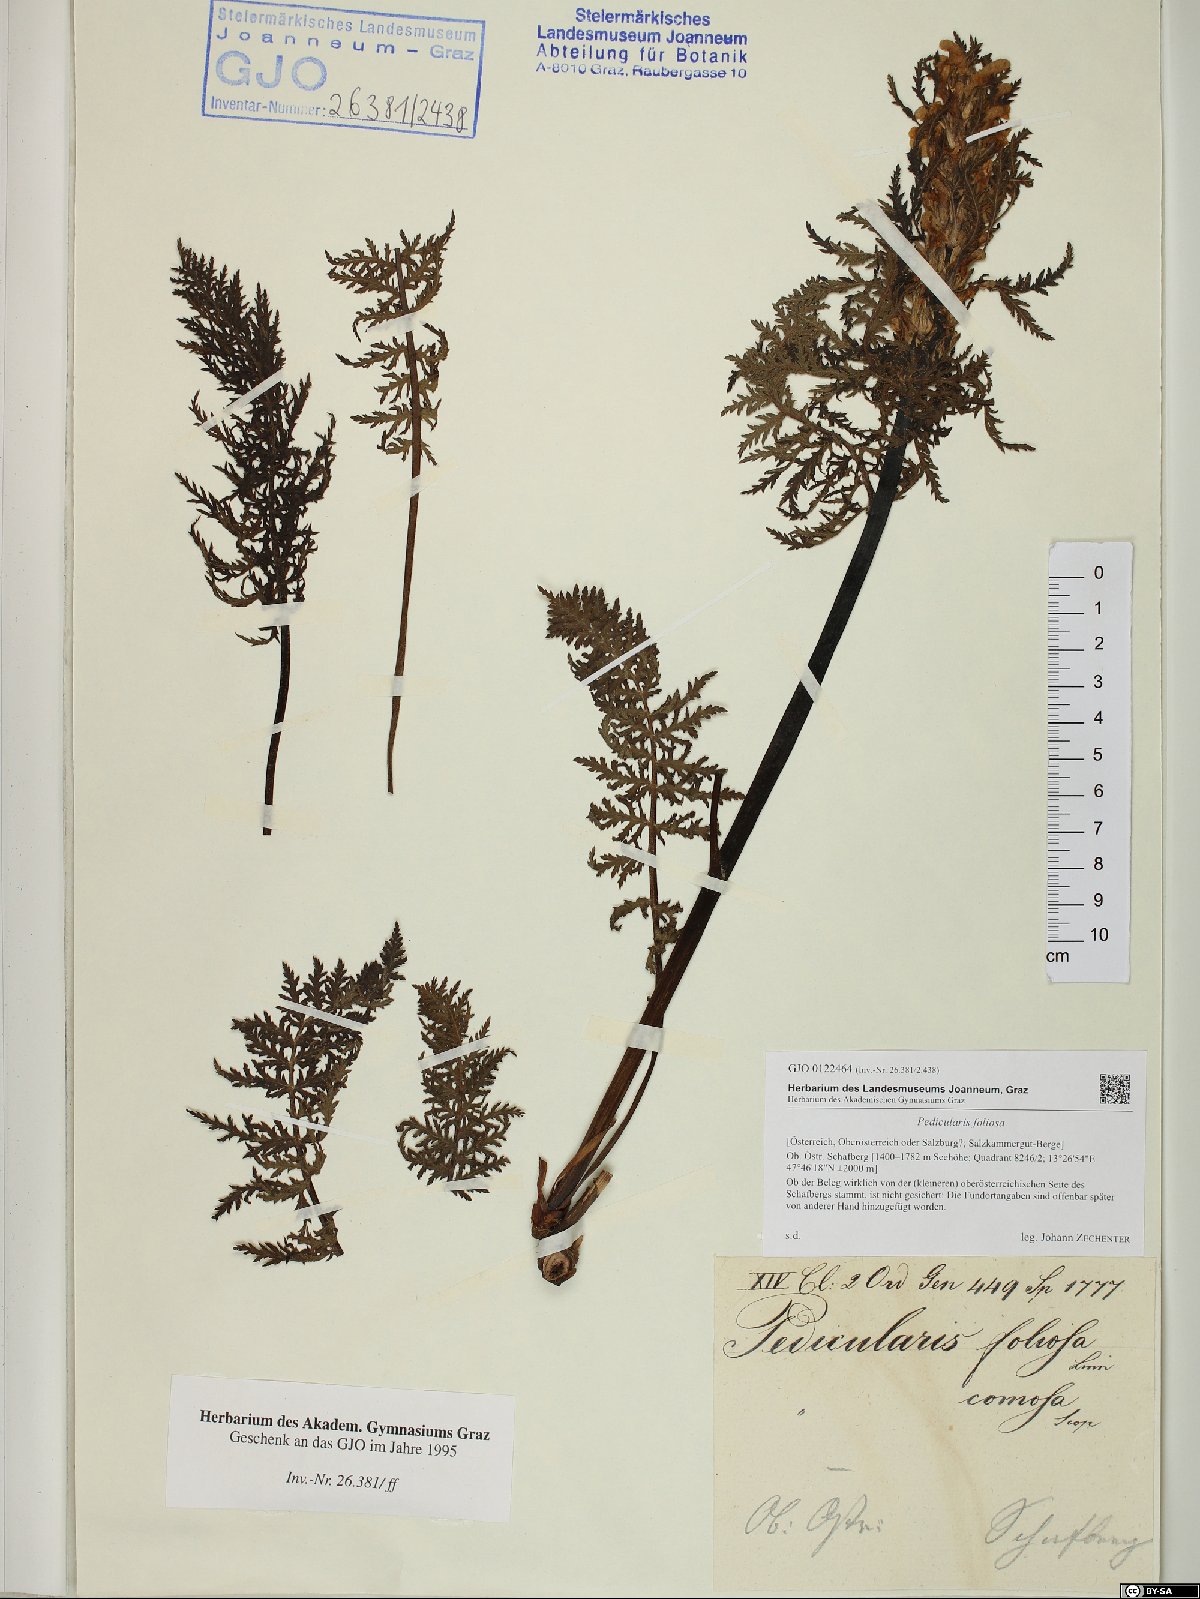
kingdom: Plantae
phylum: Tracheophyta
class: Magnoliopsida
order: Lamiales
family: Orobanchaceae
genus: Pedicularis
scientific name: Pedicularis foliosa
